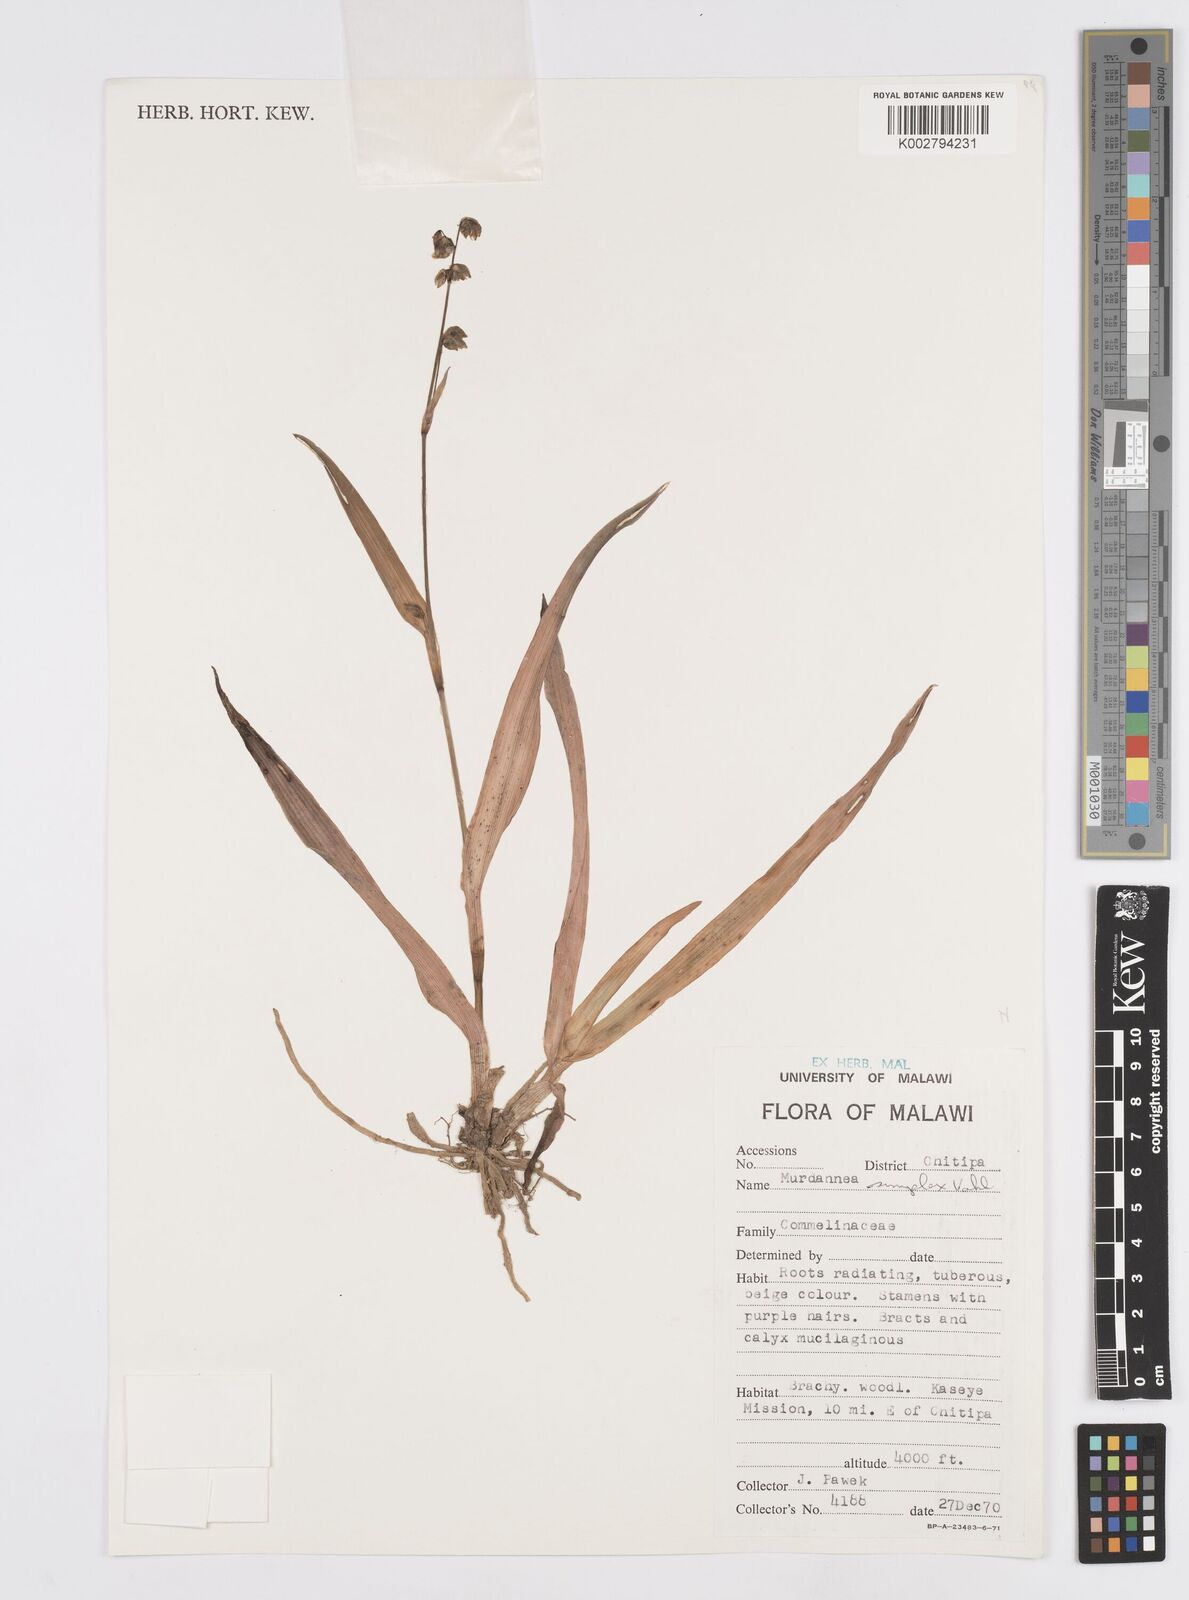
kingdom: Plantae
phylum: Tracheophyta
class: Liliopsida
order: Commelinales
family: Commelinaceae
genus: Murdannia
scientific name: Murdannia simplex
